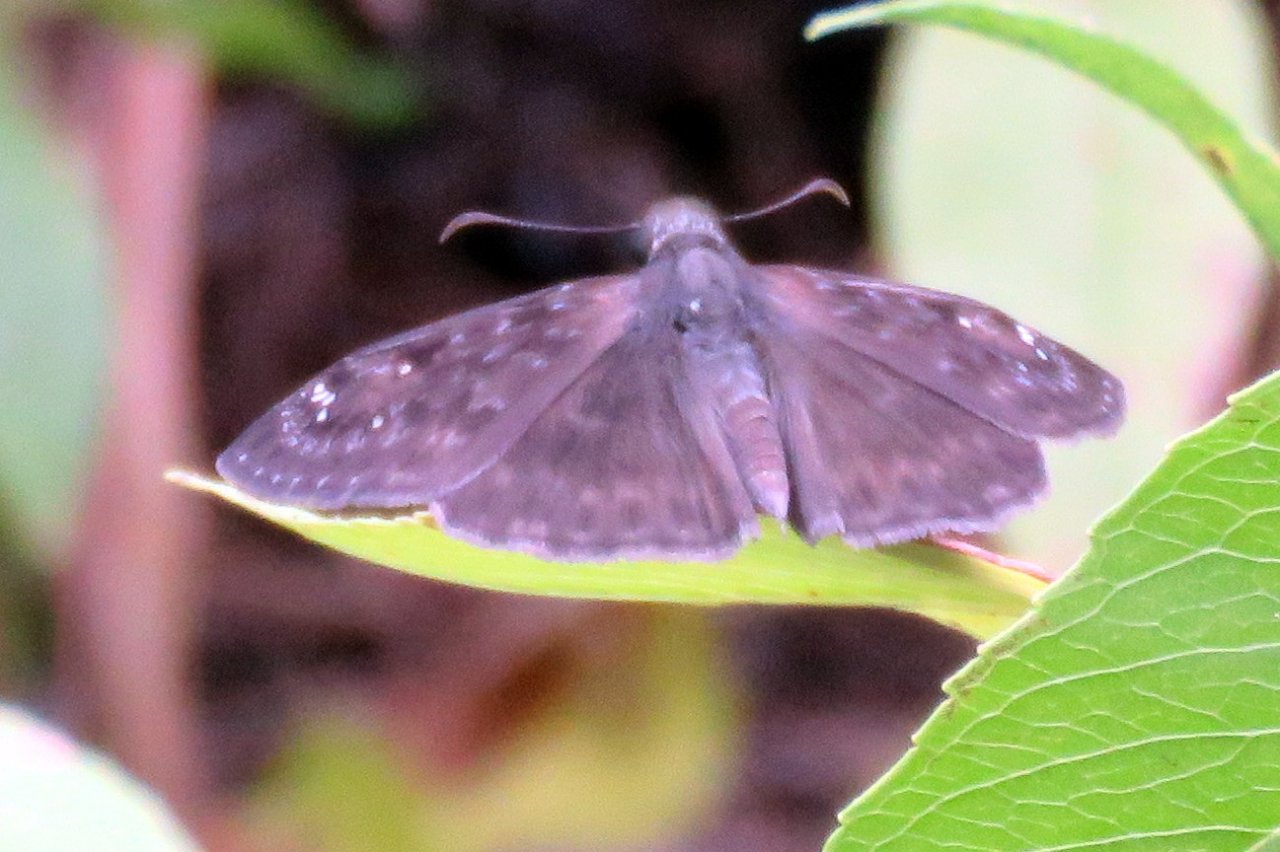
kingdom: Animalia
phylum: Arthropoda
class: Insecta
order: Lepidoptera
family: Hesperiidae
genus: Gesta
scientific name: Gesta
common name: Horace's Duskywing
